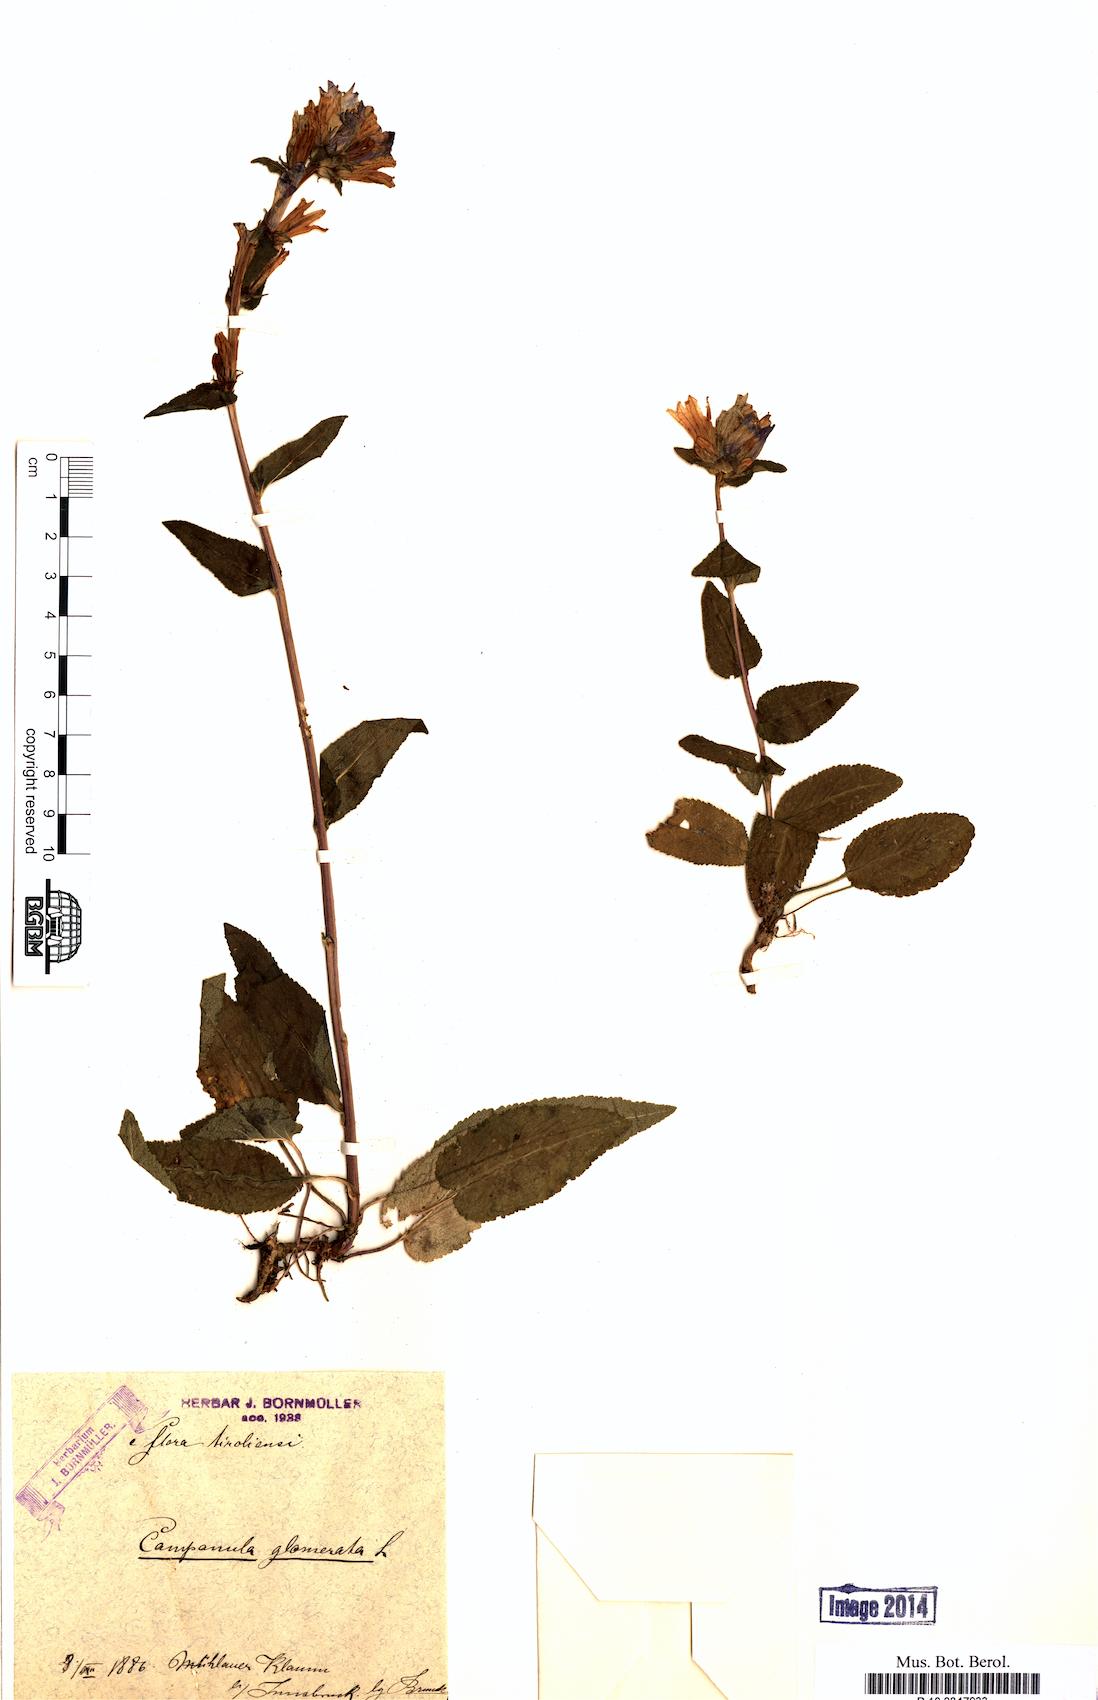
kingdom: Plantae
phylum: Tracheophyta
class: Magnoliopsida
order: Asterales
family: Campanulaceae
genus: Campanula
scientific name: Campanula glomerata
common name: Clustered bellflower
